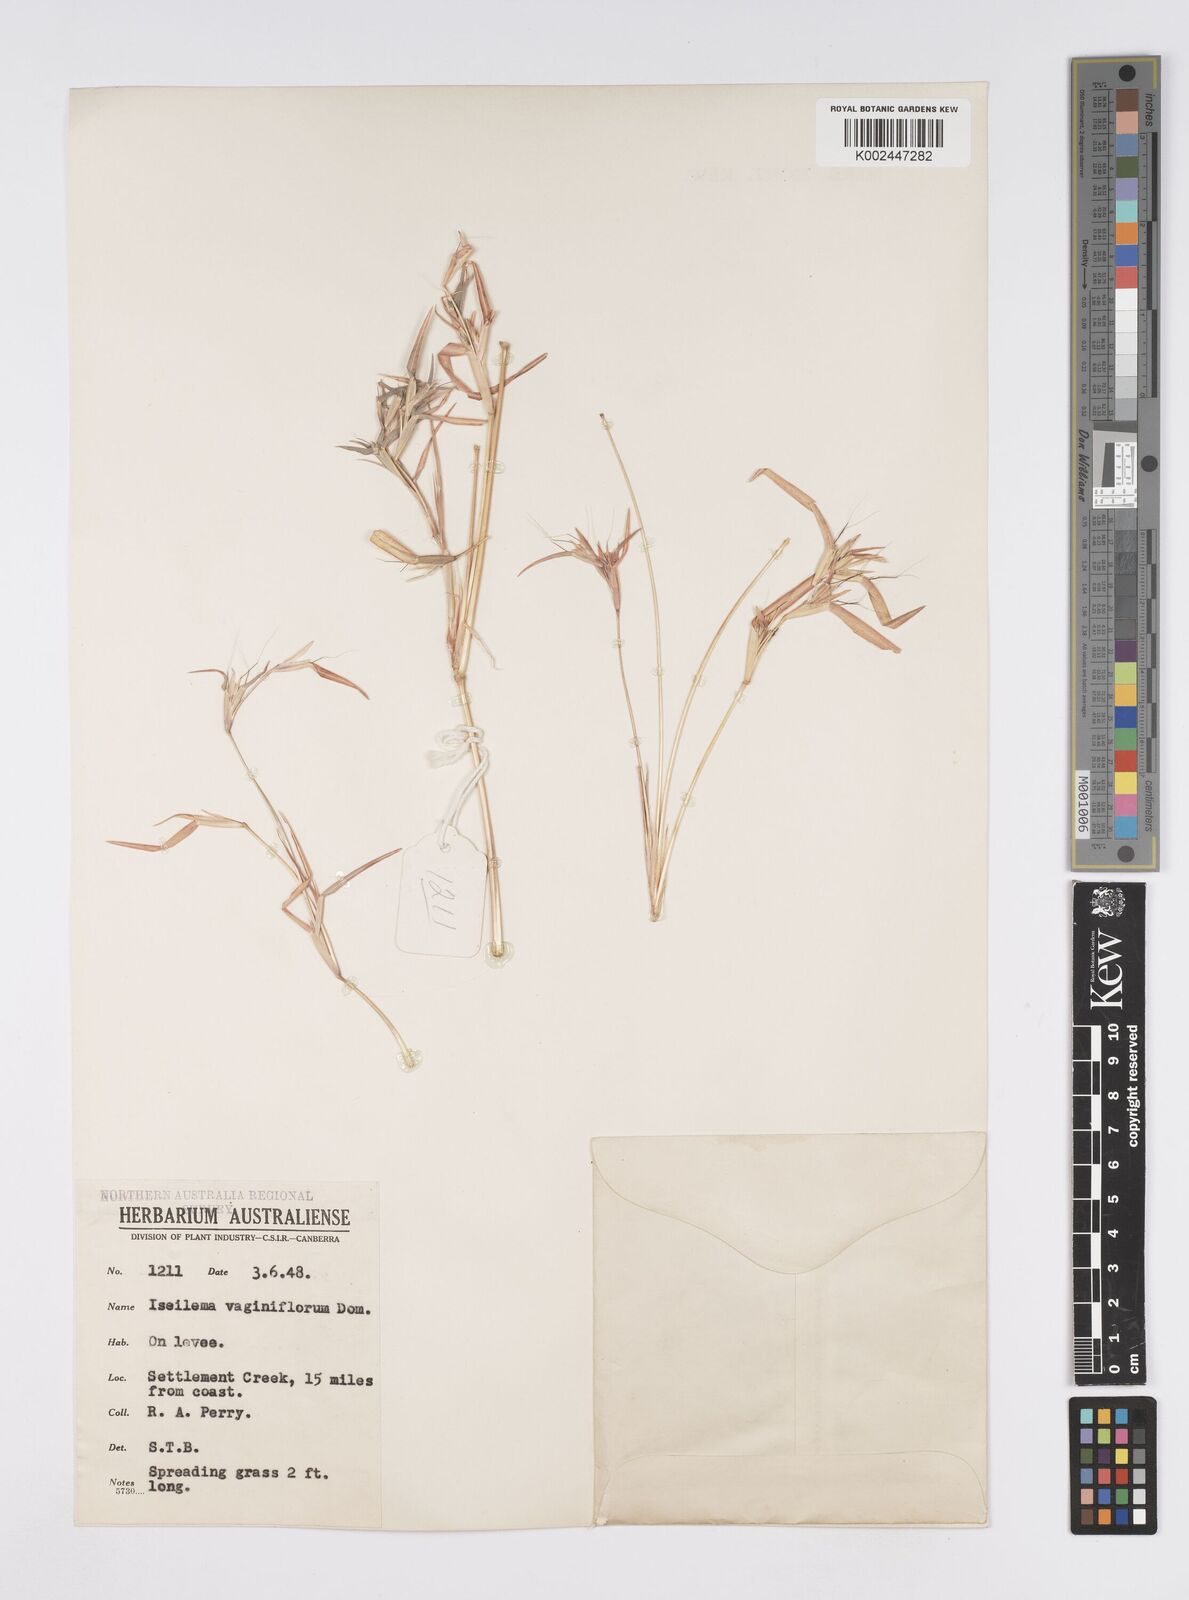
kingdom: Plantae
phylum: Tracheophyta
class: Liliopsida
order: Poales
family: Poaceae
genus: Iseilema
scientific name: Iseilema vaginiflorum
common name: Red flinders grass
